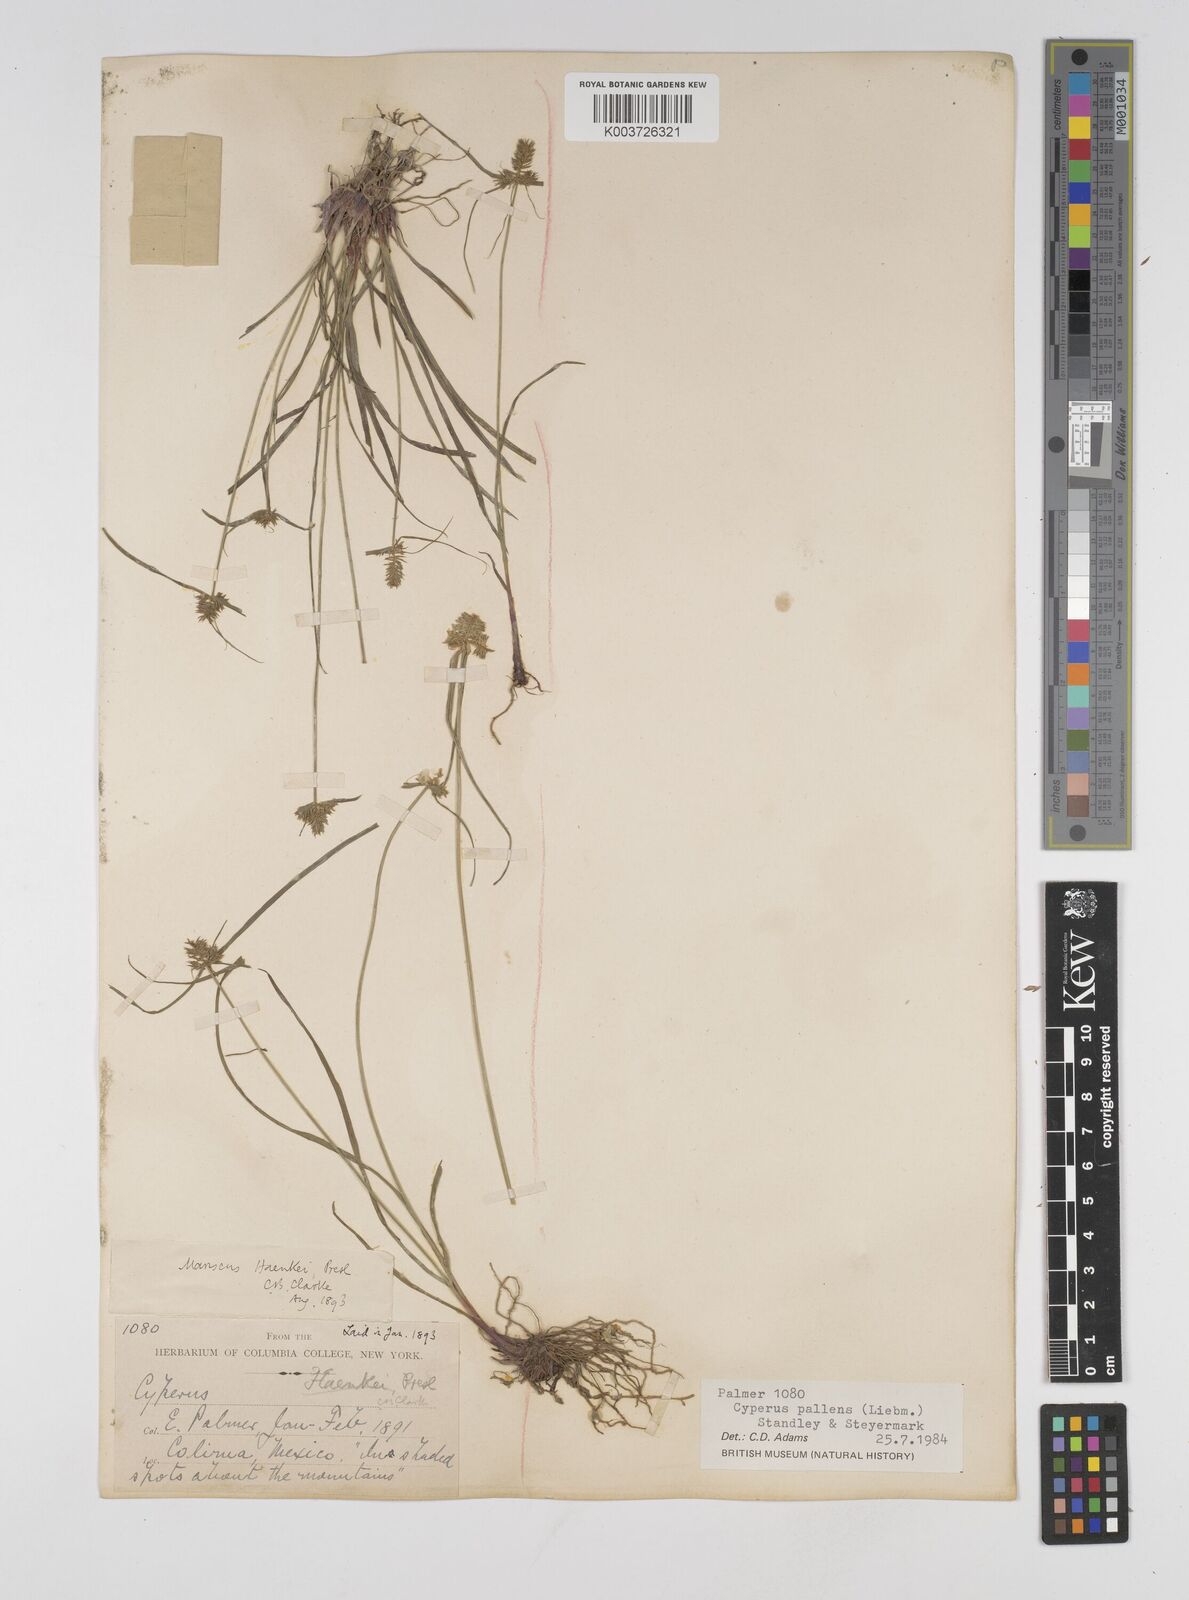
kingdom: Plantae
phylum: Tracheophyta
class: Liliopsida
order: Poales
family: Cyperaceae
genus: Cyperus
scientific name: Cyperus regiomontanus
